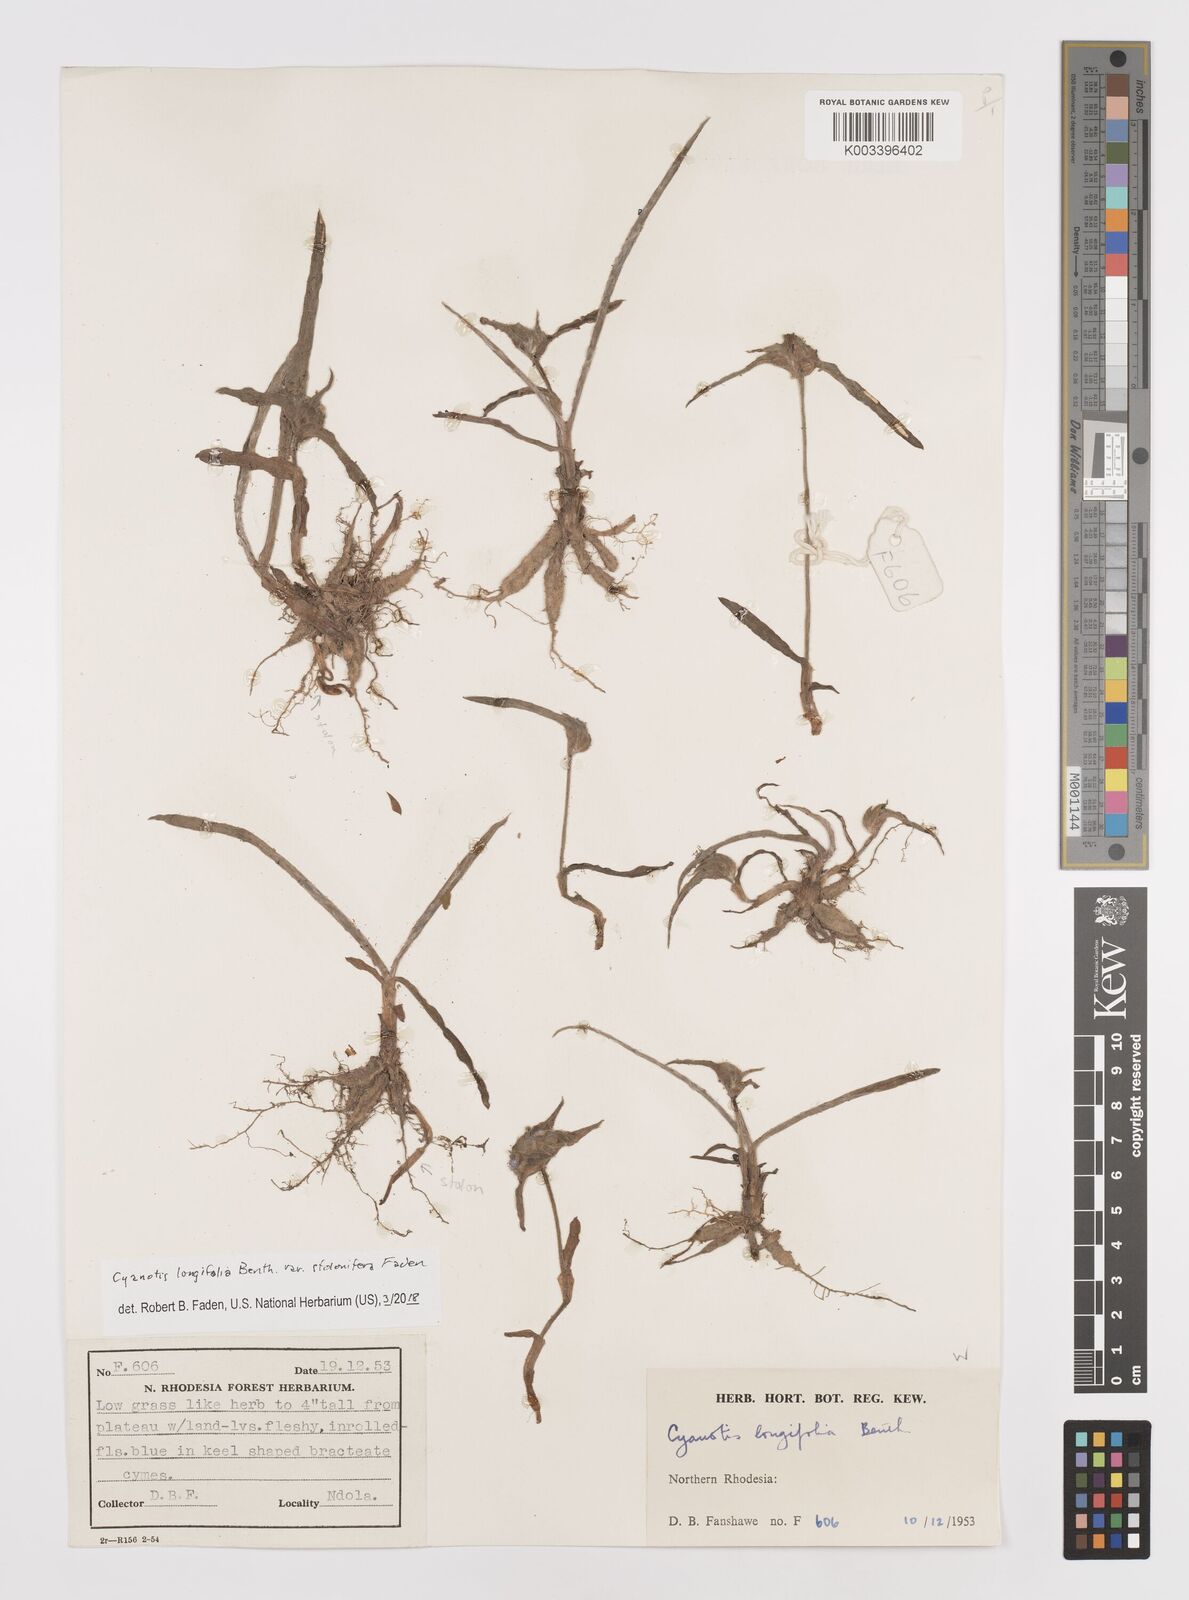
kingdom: Plantae
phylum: Tracheophyta
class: Liliopsida
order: Commelinales
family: Commelinaceae
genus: Cyanotis
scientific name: Cyanotis longifolia
